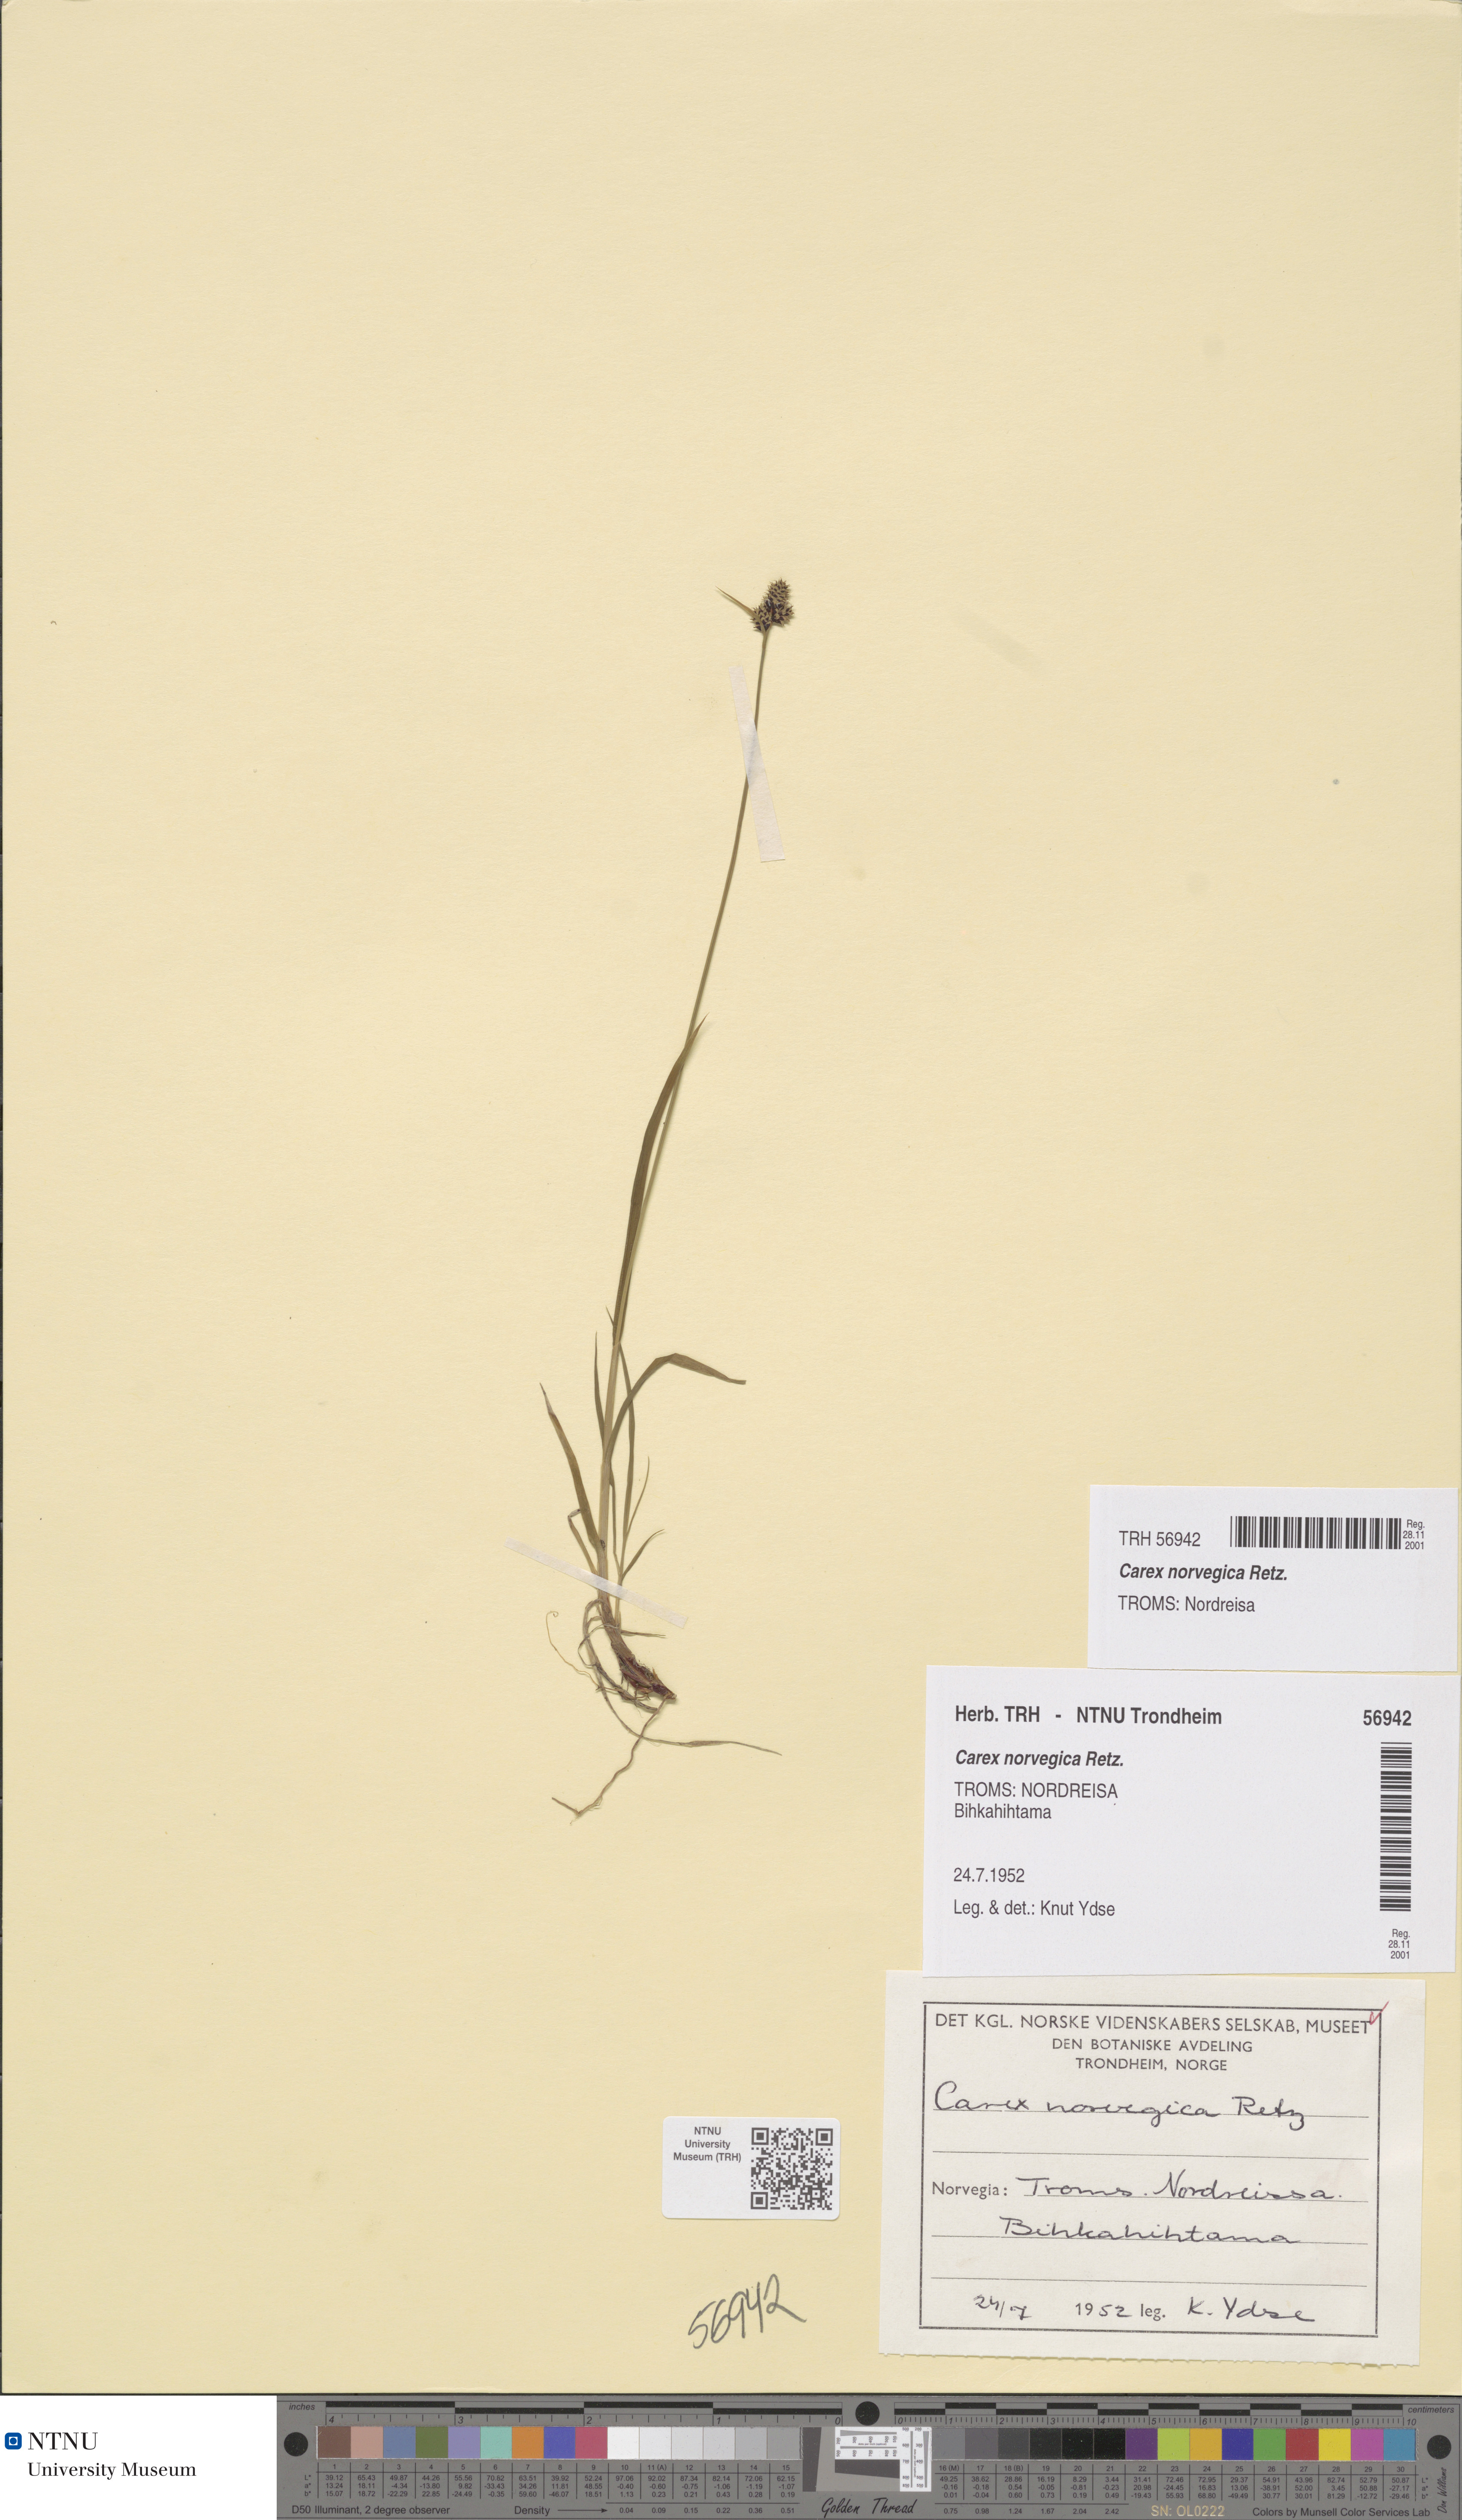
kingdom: Plantae
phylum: Tracheophyta
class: Liliopsida
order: Poales
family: Cyperaceae
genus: Carex
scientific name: Carex norvegica
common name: Close-headed alpine-sedge
